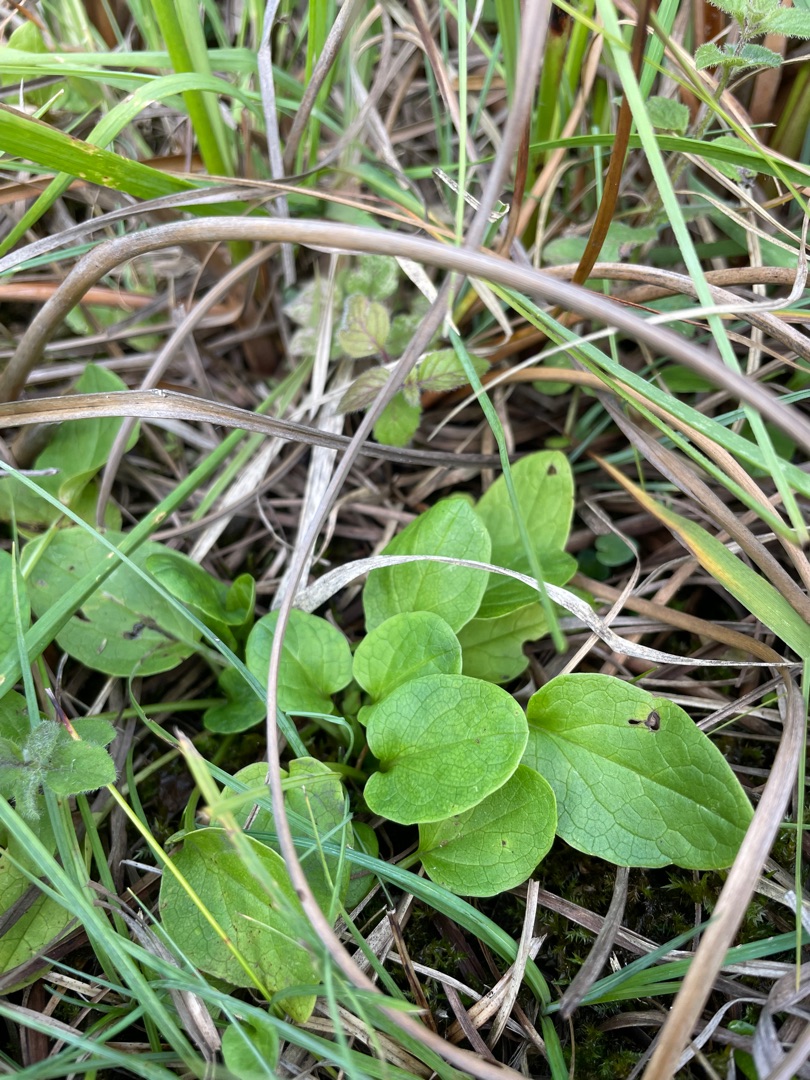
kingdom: Plantae
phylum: Tracheophyta
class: Magnoliopsida
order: Celastrales
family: Parnassiaceae
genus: Parnassia
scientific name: Parnassia palustris
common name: Leverurt
